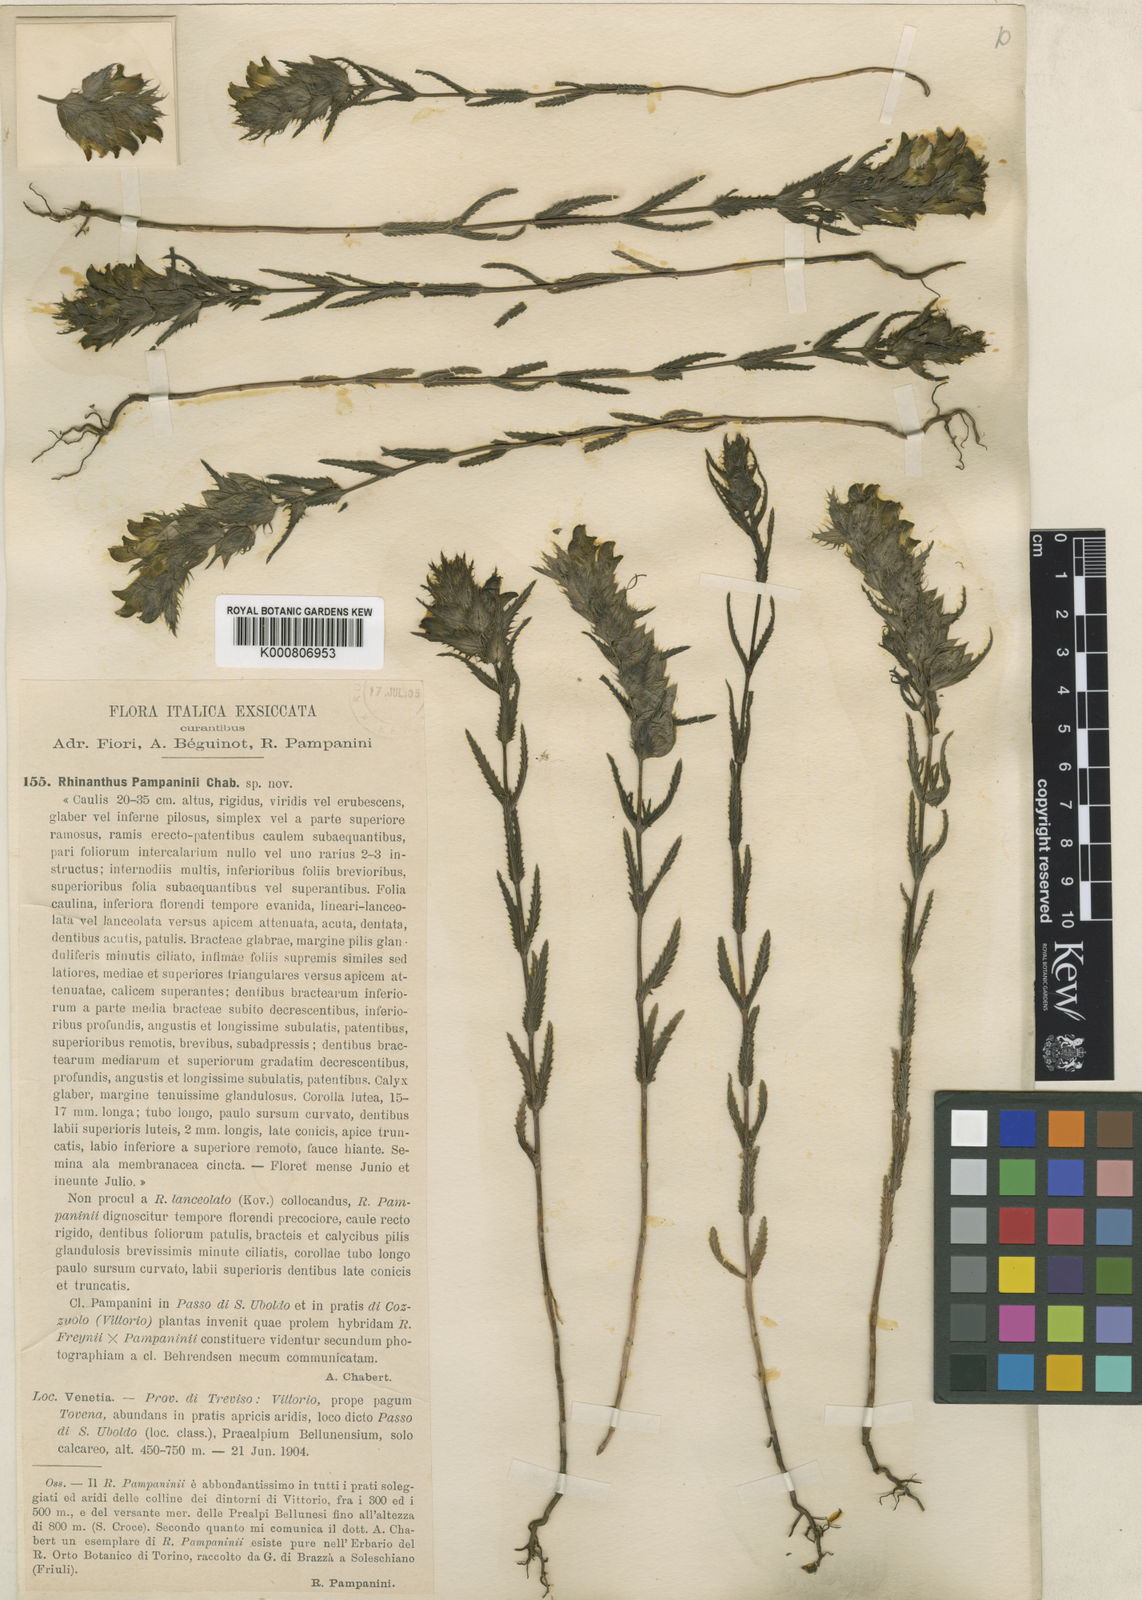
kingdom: Plantae
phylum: Tracheophyta
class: Magnoliopsida
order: Lamiales
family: Orobanchaceae
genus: Rhinanthus
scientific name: Rhinanthus pampaninii
